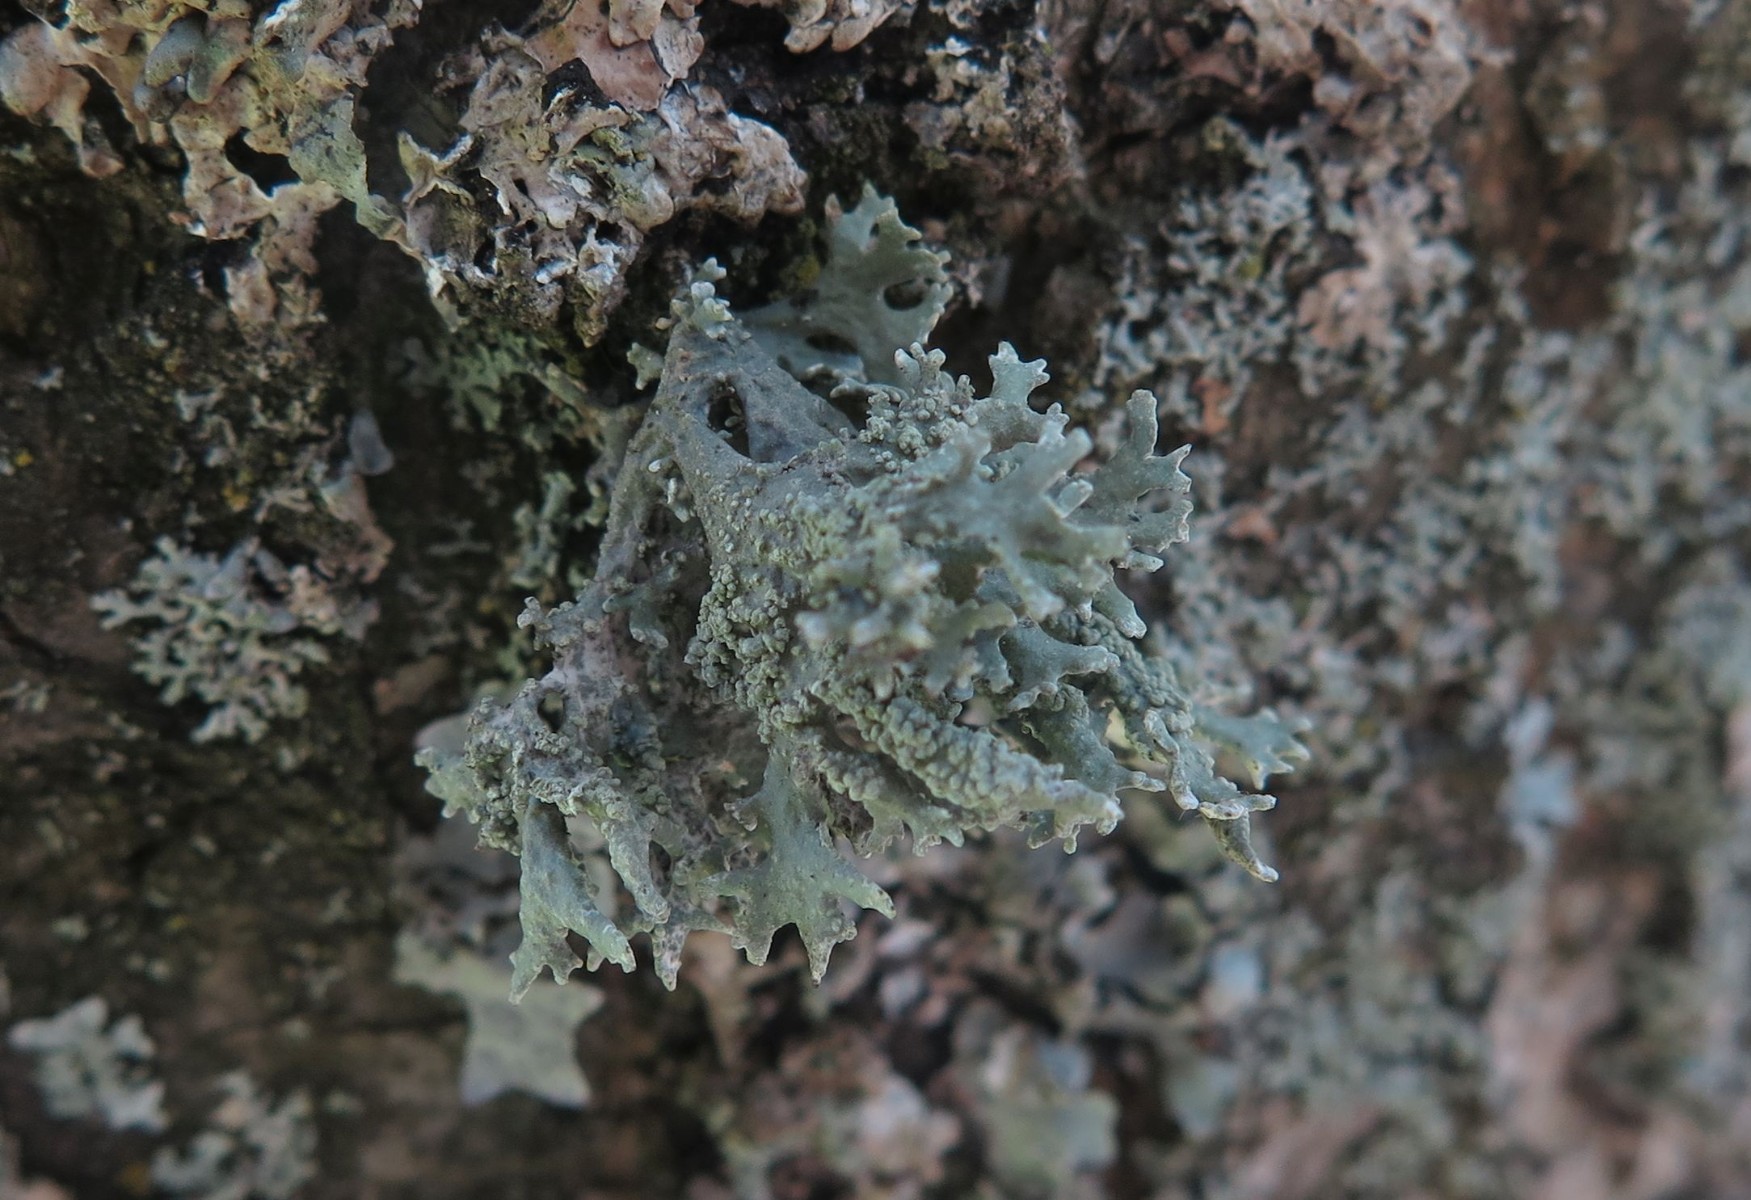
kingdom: Fungi
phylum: Ascomycota
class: Lecanoromycetes
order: Lecanorales
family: Parmeliaceae
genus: Evernia
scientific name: Evernia prunastri
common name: almindelig slåenlav
